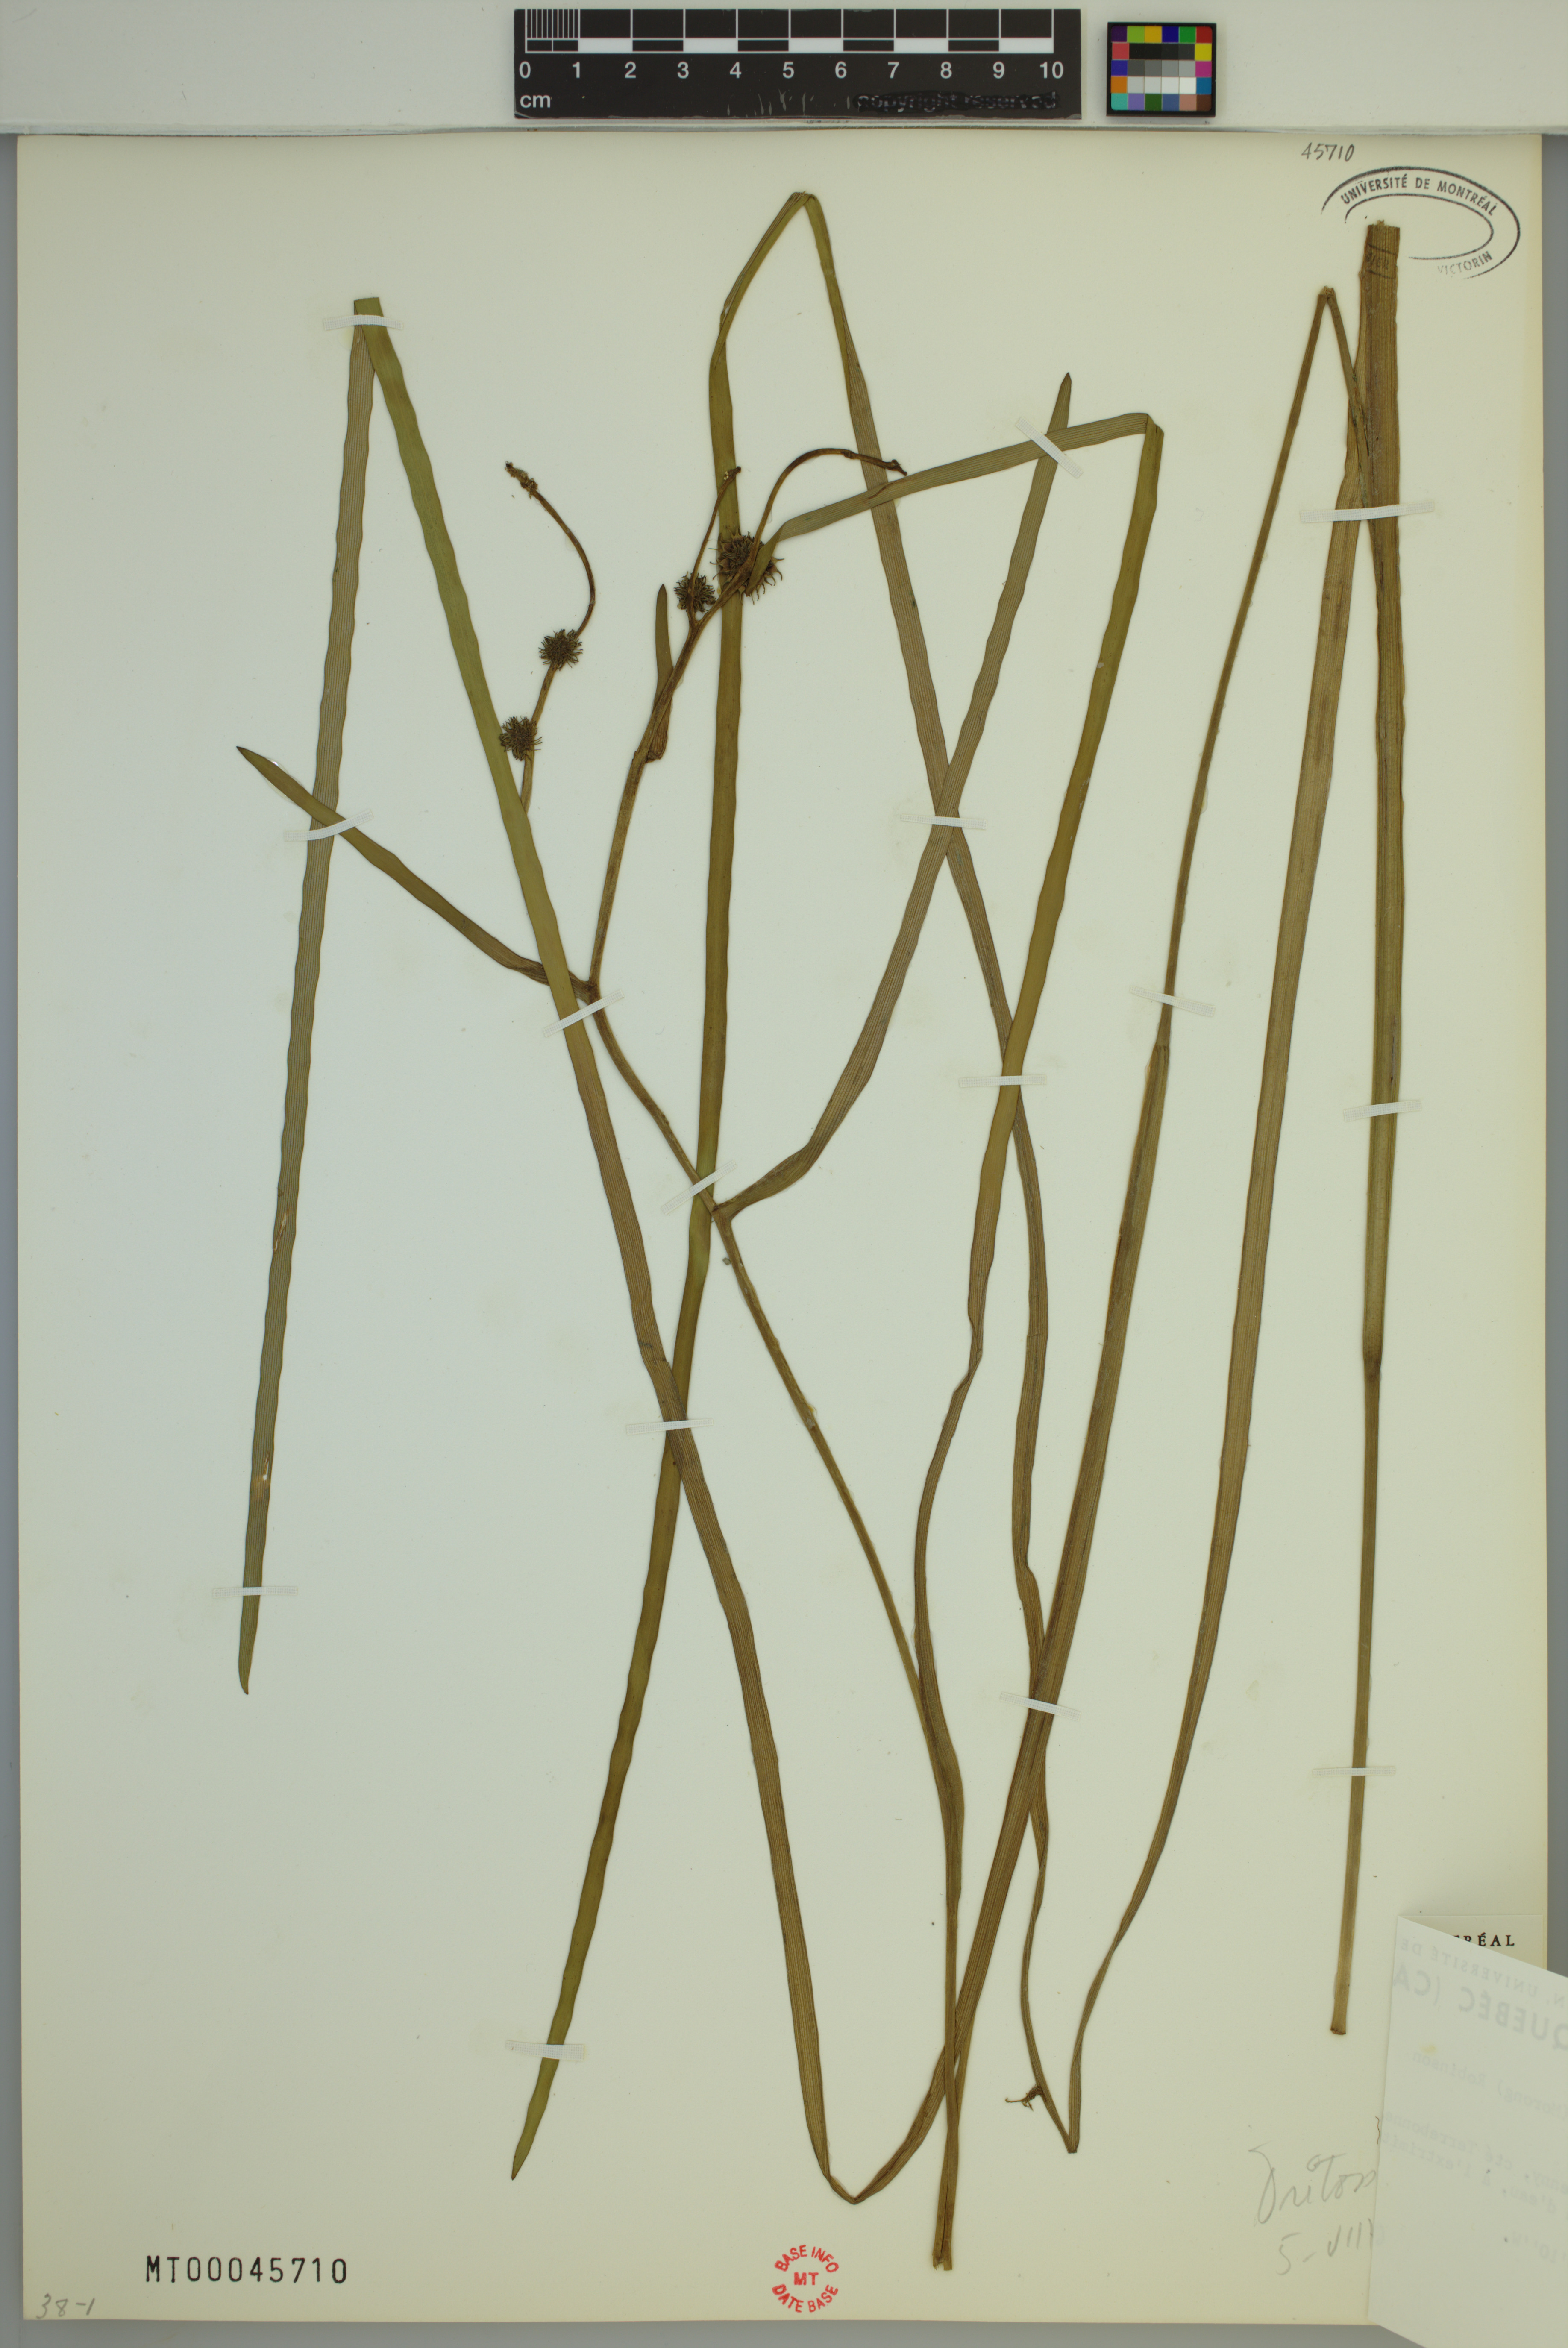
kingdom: Plantae
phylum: Tracheophyta
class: Liliopsida
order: Poales
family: Typhaceae
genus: Sparganium
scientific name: Sparganium fluctuans
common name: Floating burreed
